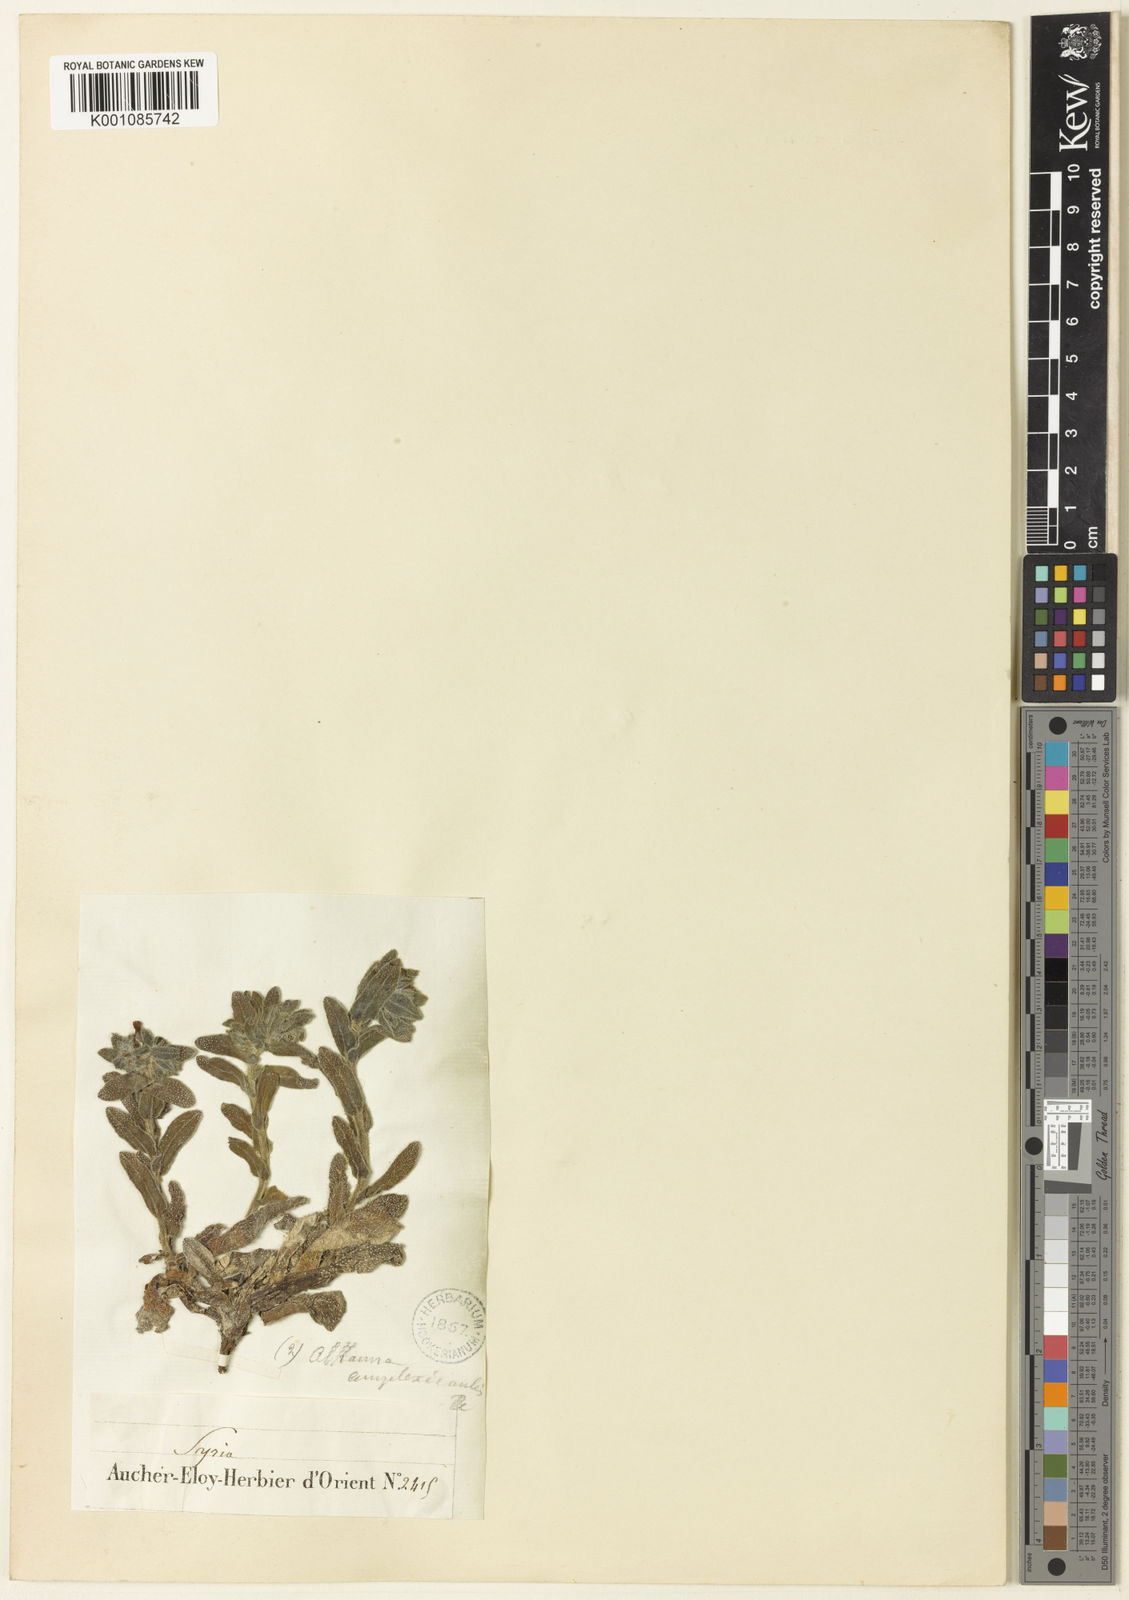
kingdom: Plantae
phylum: Tracheophyta
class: Magnoliopsida
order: Boraginales
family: Boraginaceae
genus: Alkanna
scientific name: Alkanna kotschyana
